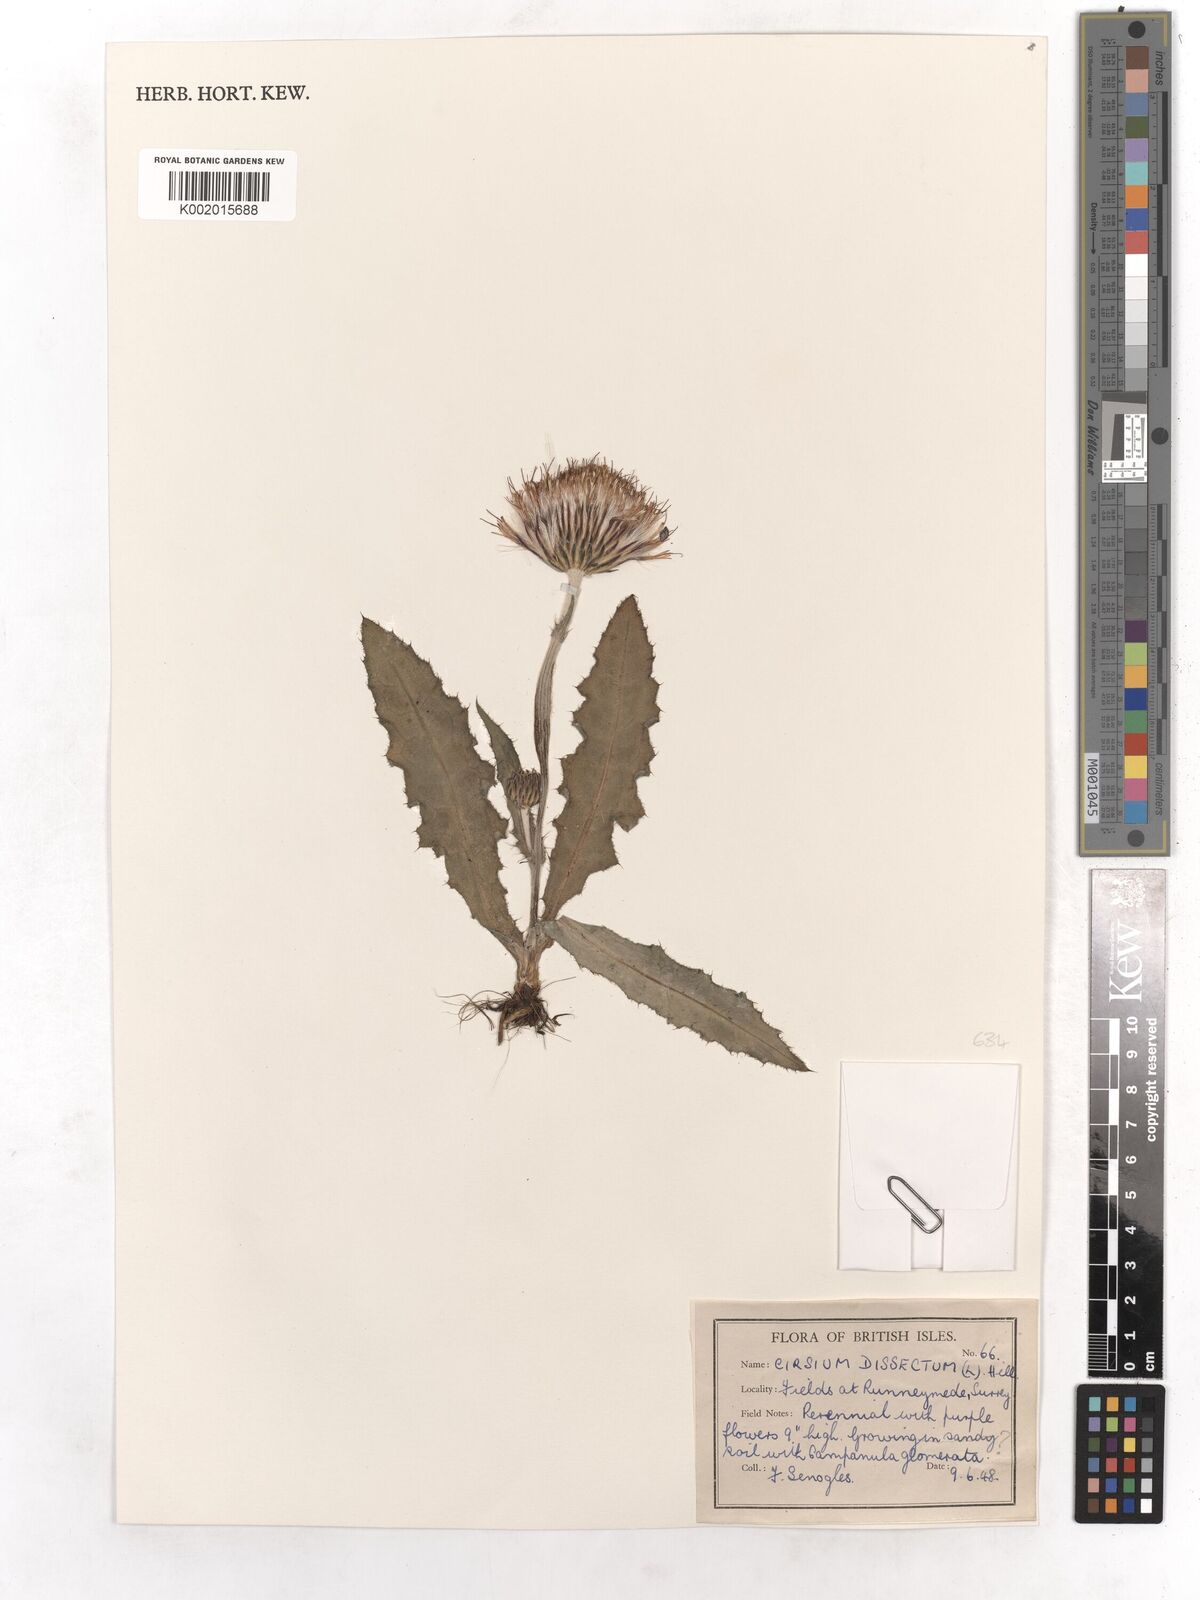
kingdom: Plantae
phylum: Tracheophyta
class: Magnoliopsida
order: Asterales
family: Asteraceae
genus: Cirsium
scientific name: Cirsium dissectum
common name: Meadow thistle
